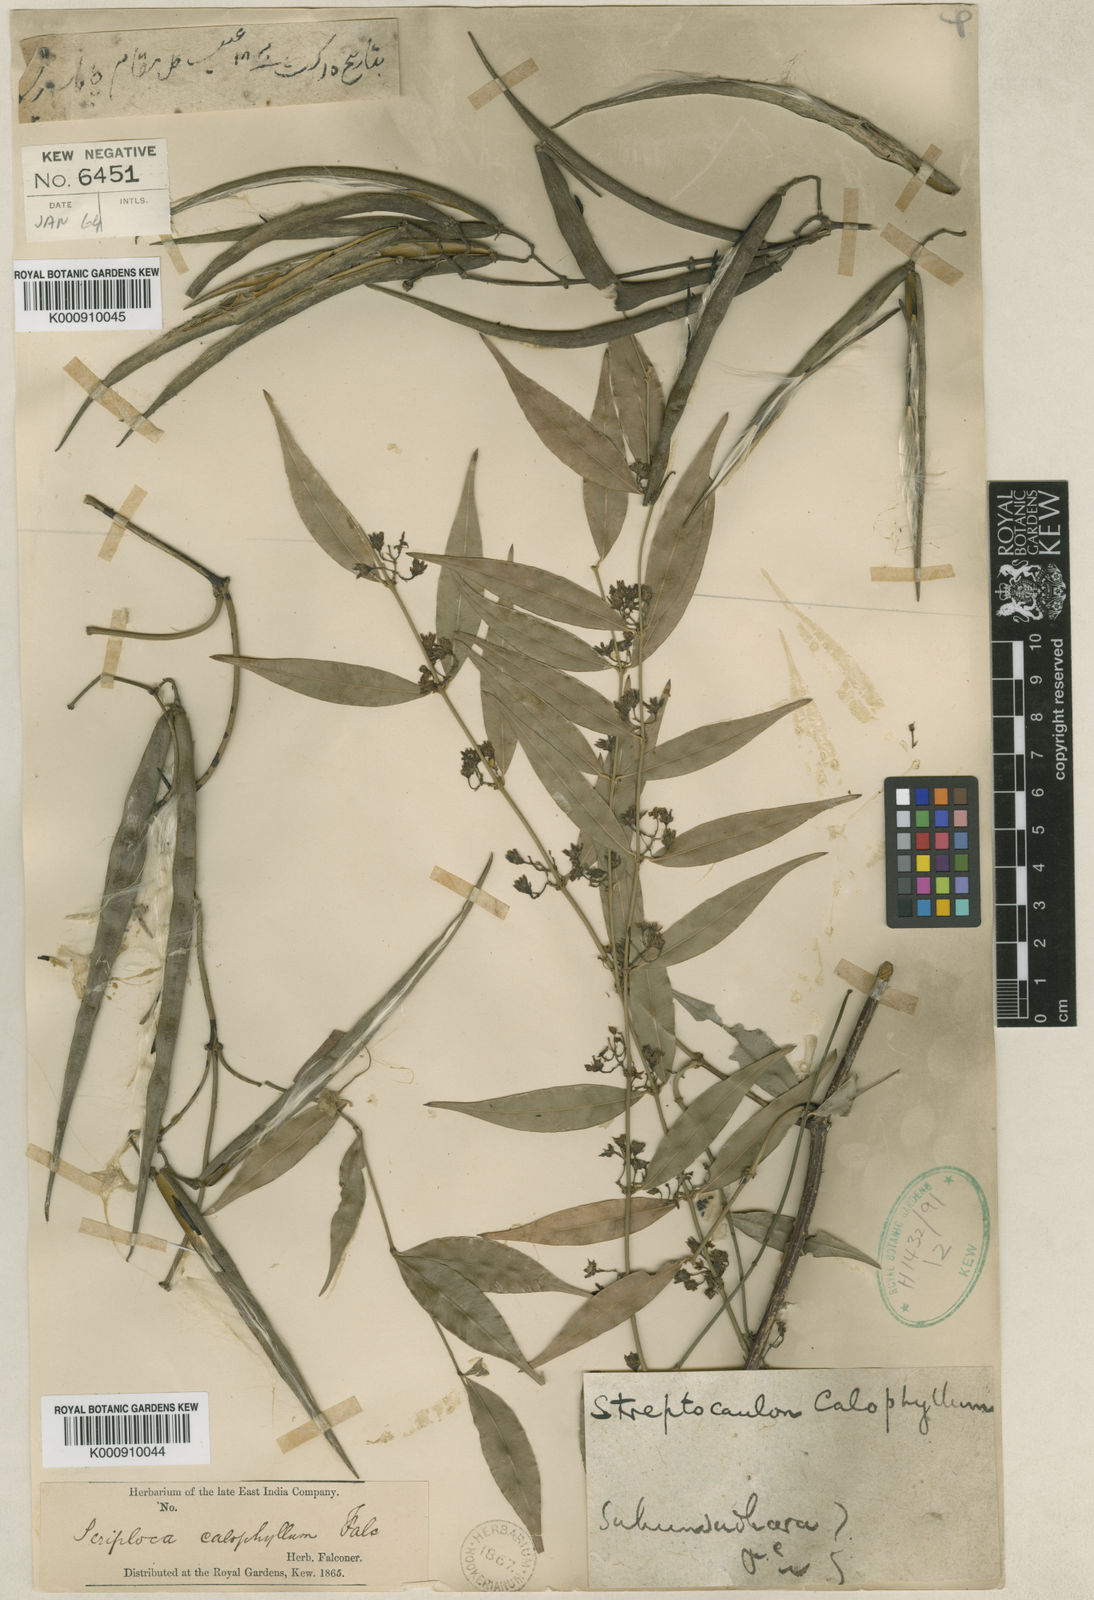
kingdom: Plantae
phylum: Tracheophyta
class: Magnoliopsida
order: Gentianales
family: Apocynaceae
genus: Periploca
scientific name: Periploca calophylla
